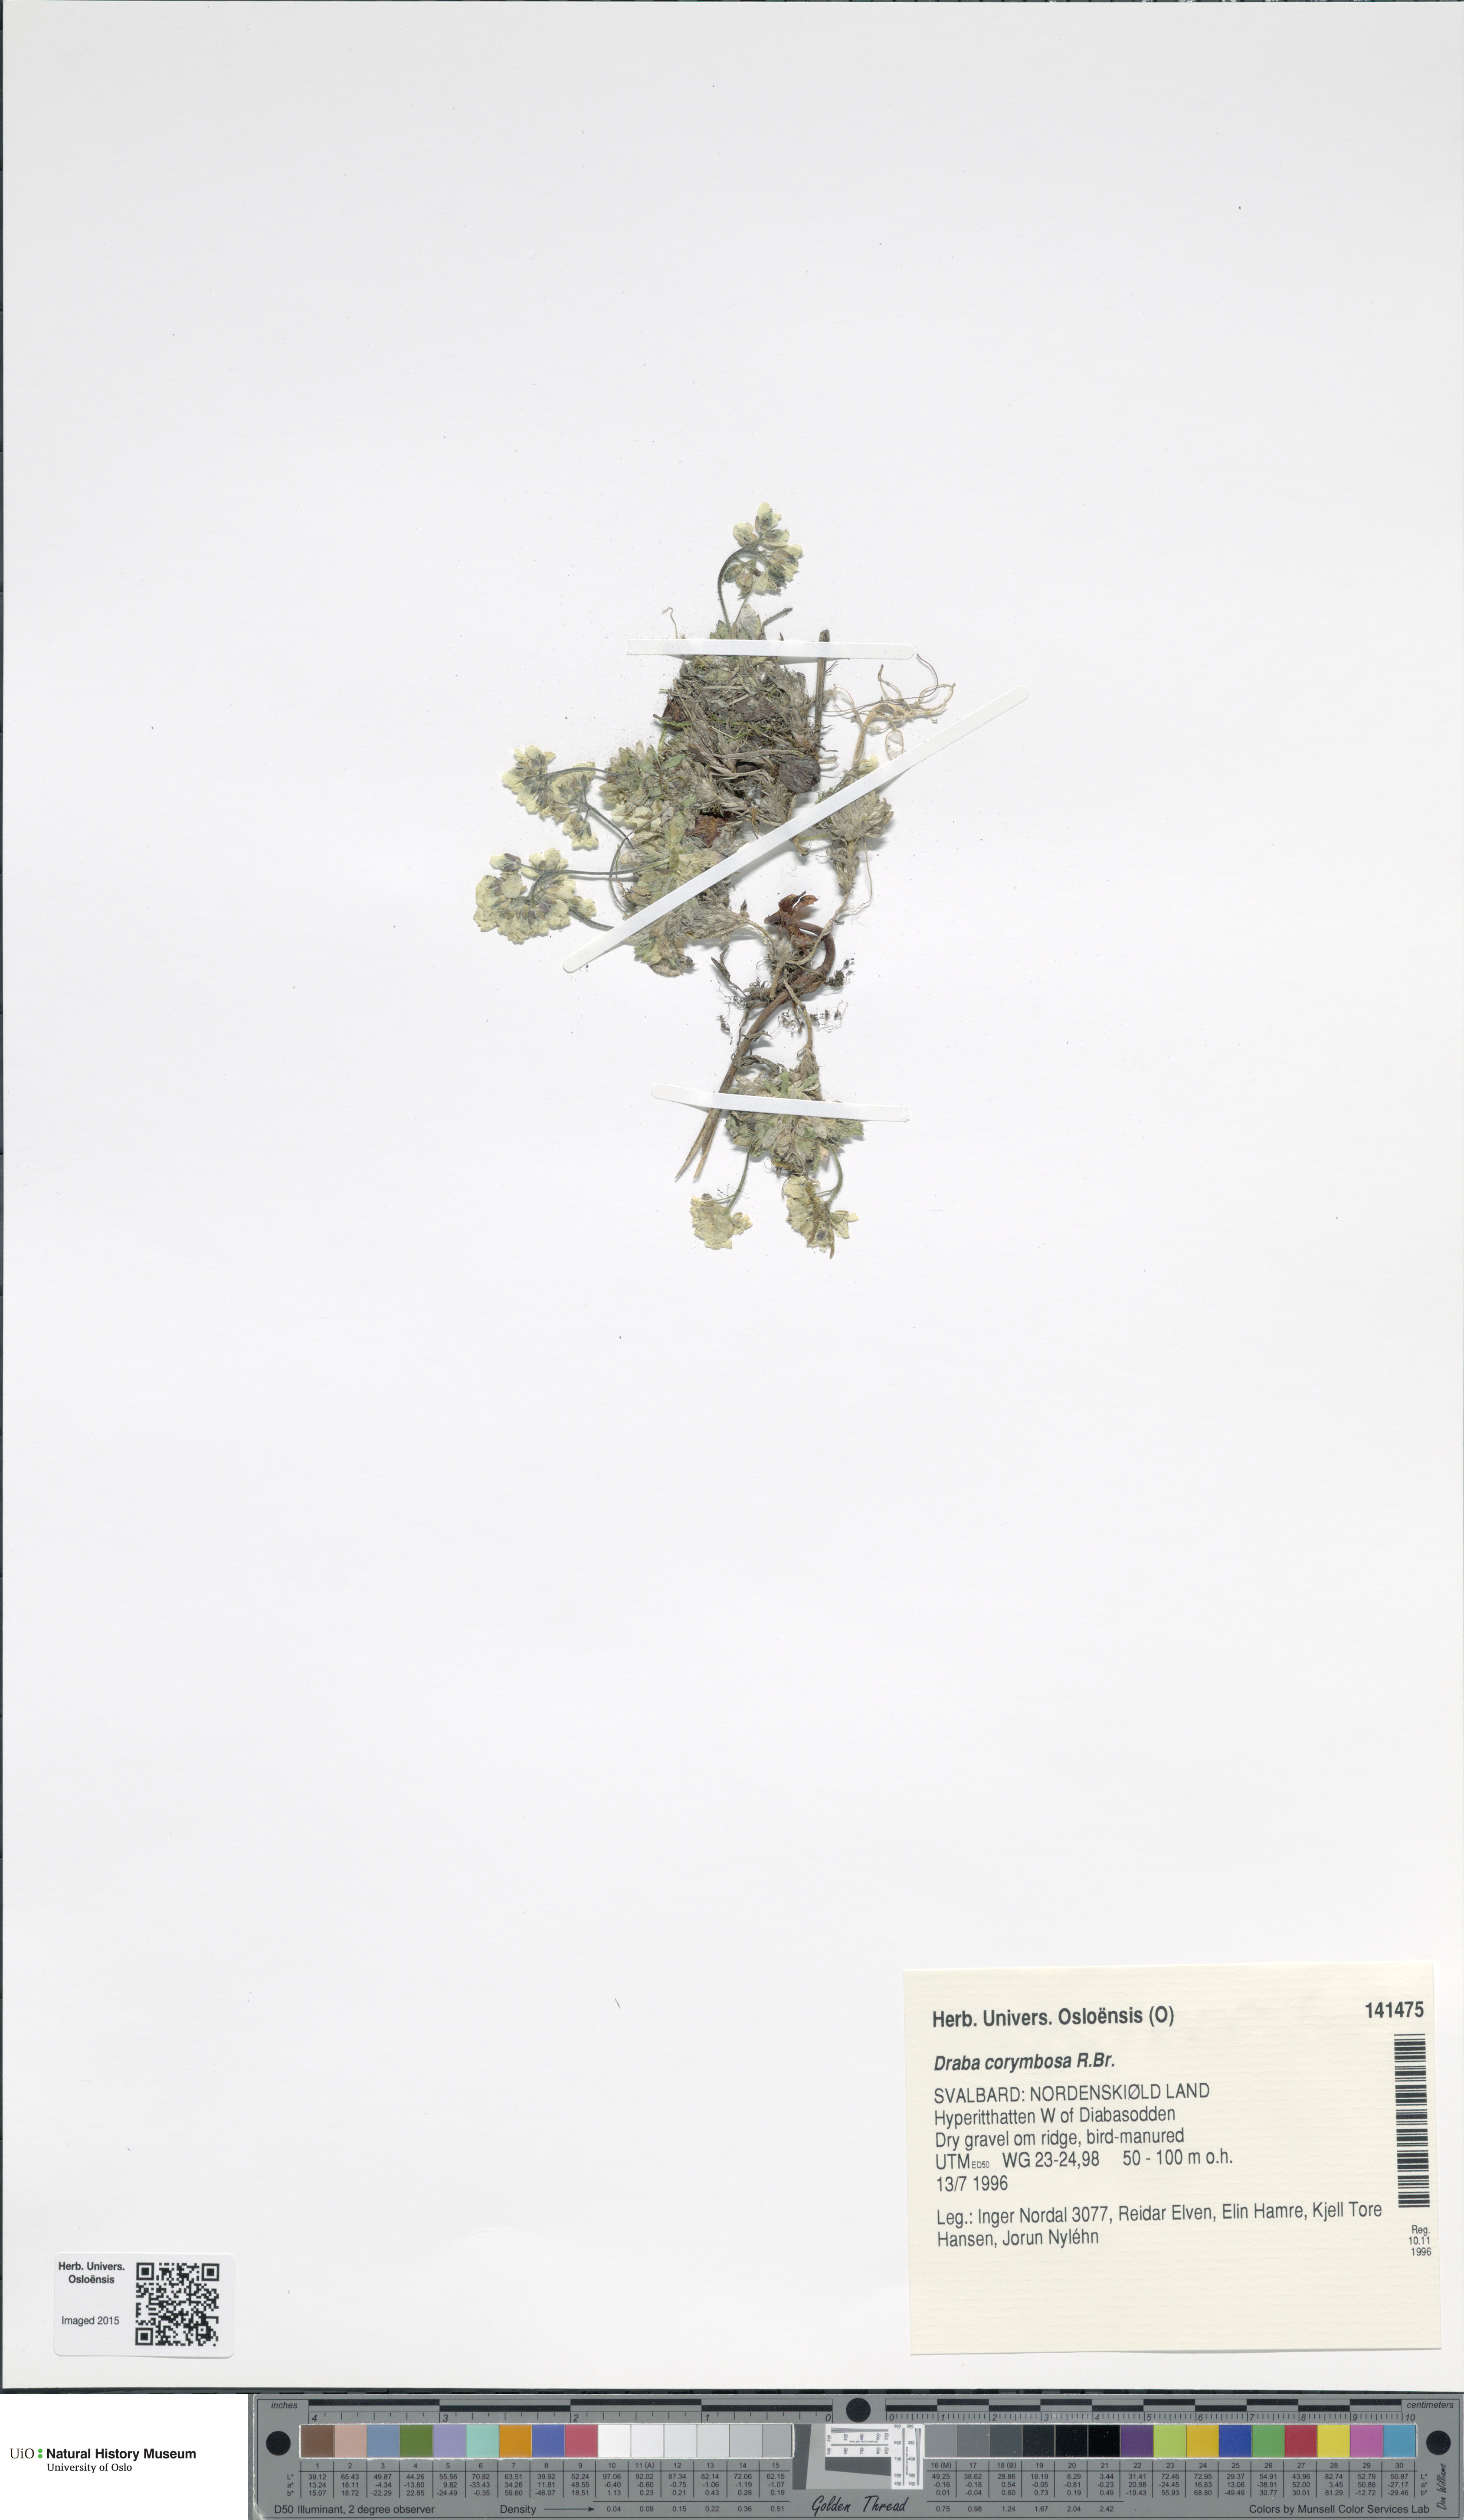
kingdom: Plantae
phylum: Tracheophyta
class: Magnoliopsida
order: Brassicales
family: Brassicaceae
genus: Draba
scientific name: Draba corymbosa
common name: Cushion whitlow-grass
